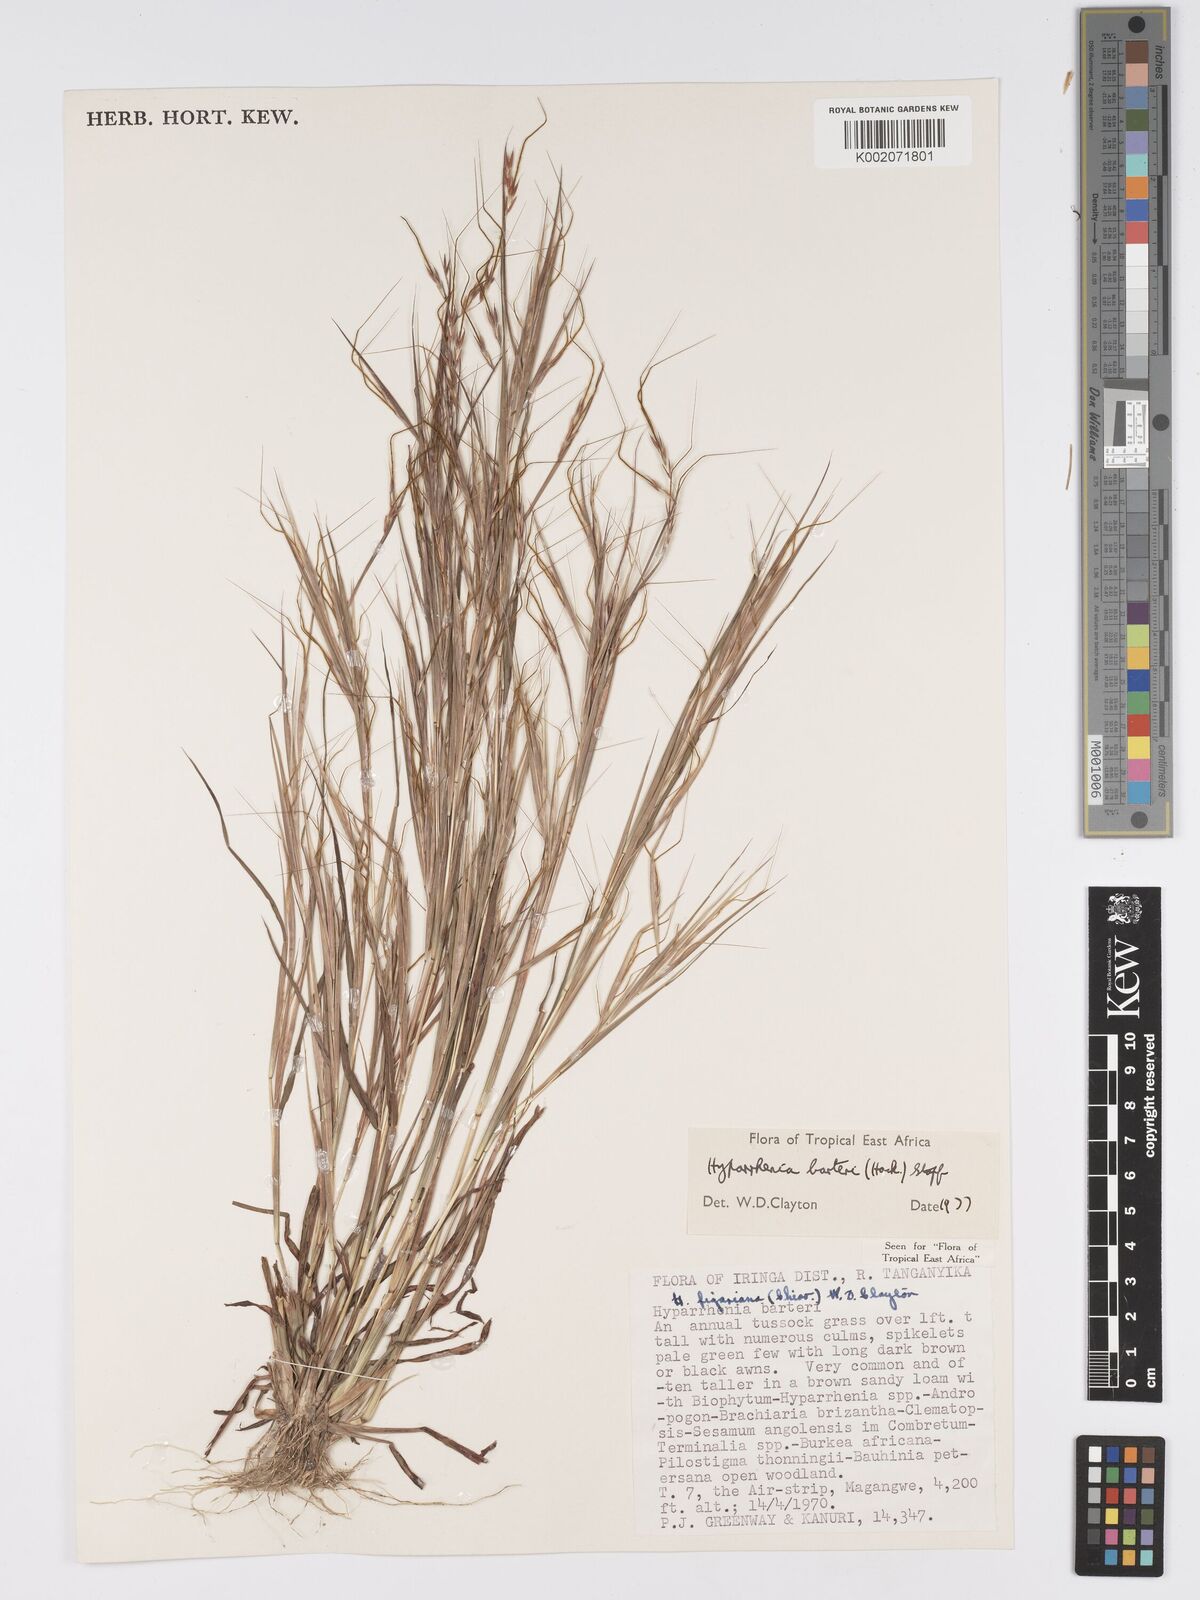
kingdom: Plantae
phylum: Tracheophyta
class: Liliopsida
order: Poales
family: Poaceae
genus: Hyparrhenia
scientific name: Hyparrhenia barteri
